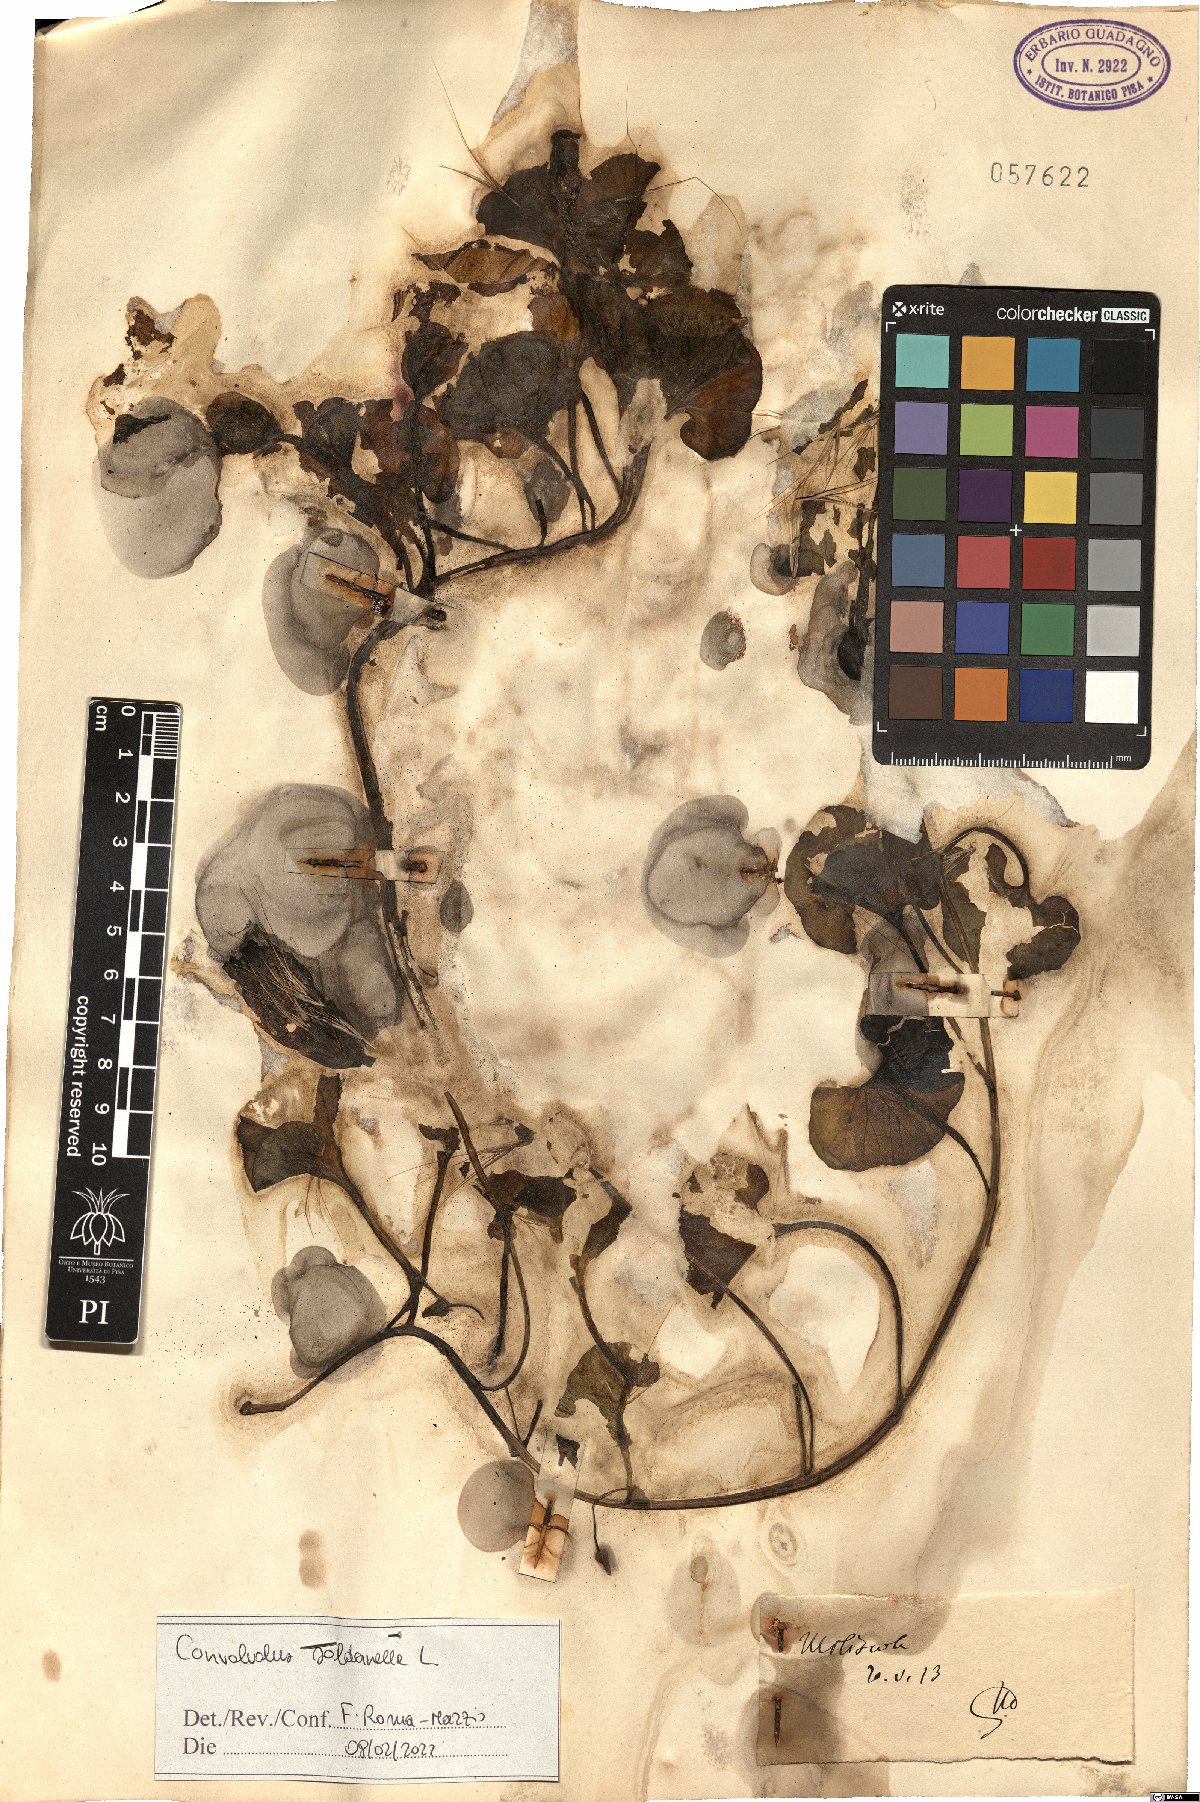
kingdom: Plantae
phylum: Tracheophyta
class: Magnoliopsida
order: Solanales
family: Convolvulaceae
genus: Calystegia
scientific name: Calystegia soldanella
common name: Sea bindweed
